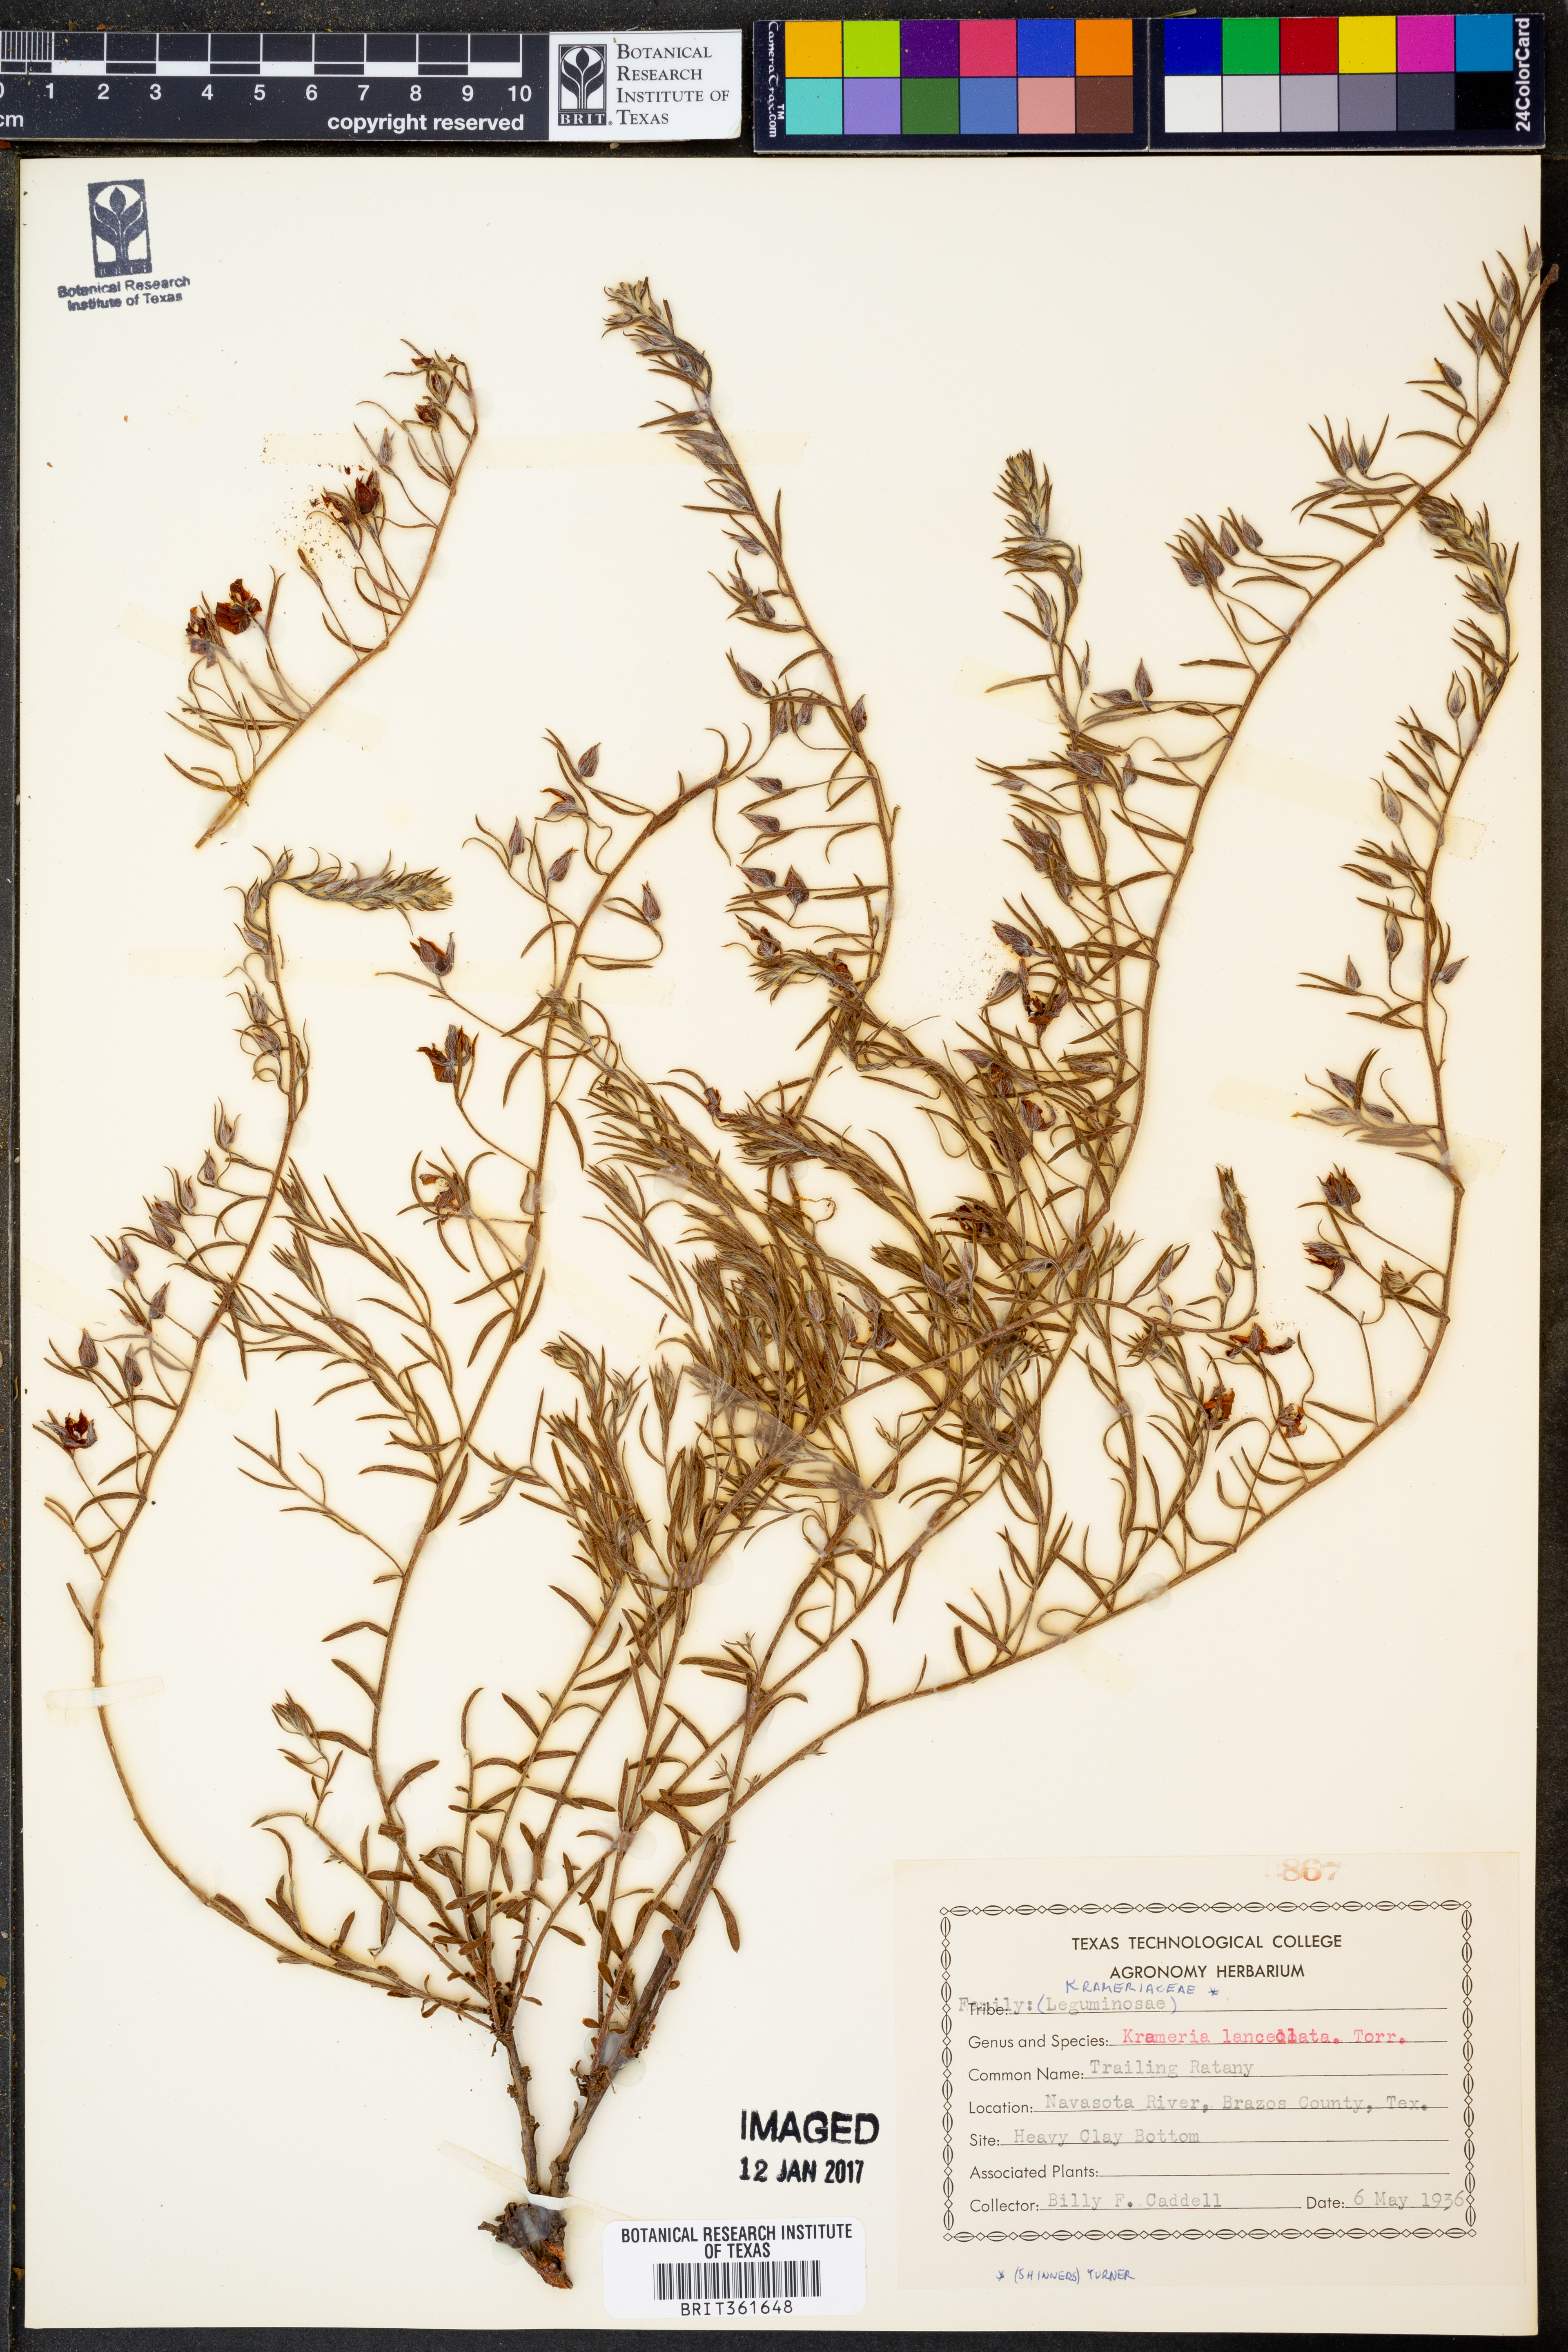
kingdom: Plantae
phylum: Tracheophyta
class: Magnoliopsida
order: Zygophyllales
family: Krameriaceae
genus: Krameria
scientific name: Krameria lanceolata
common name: Ratany
